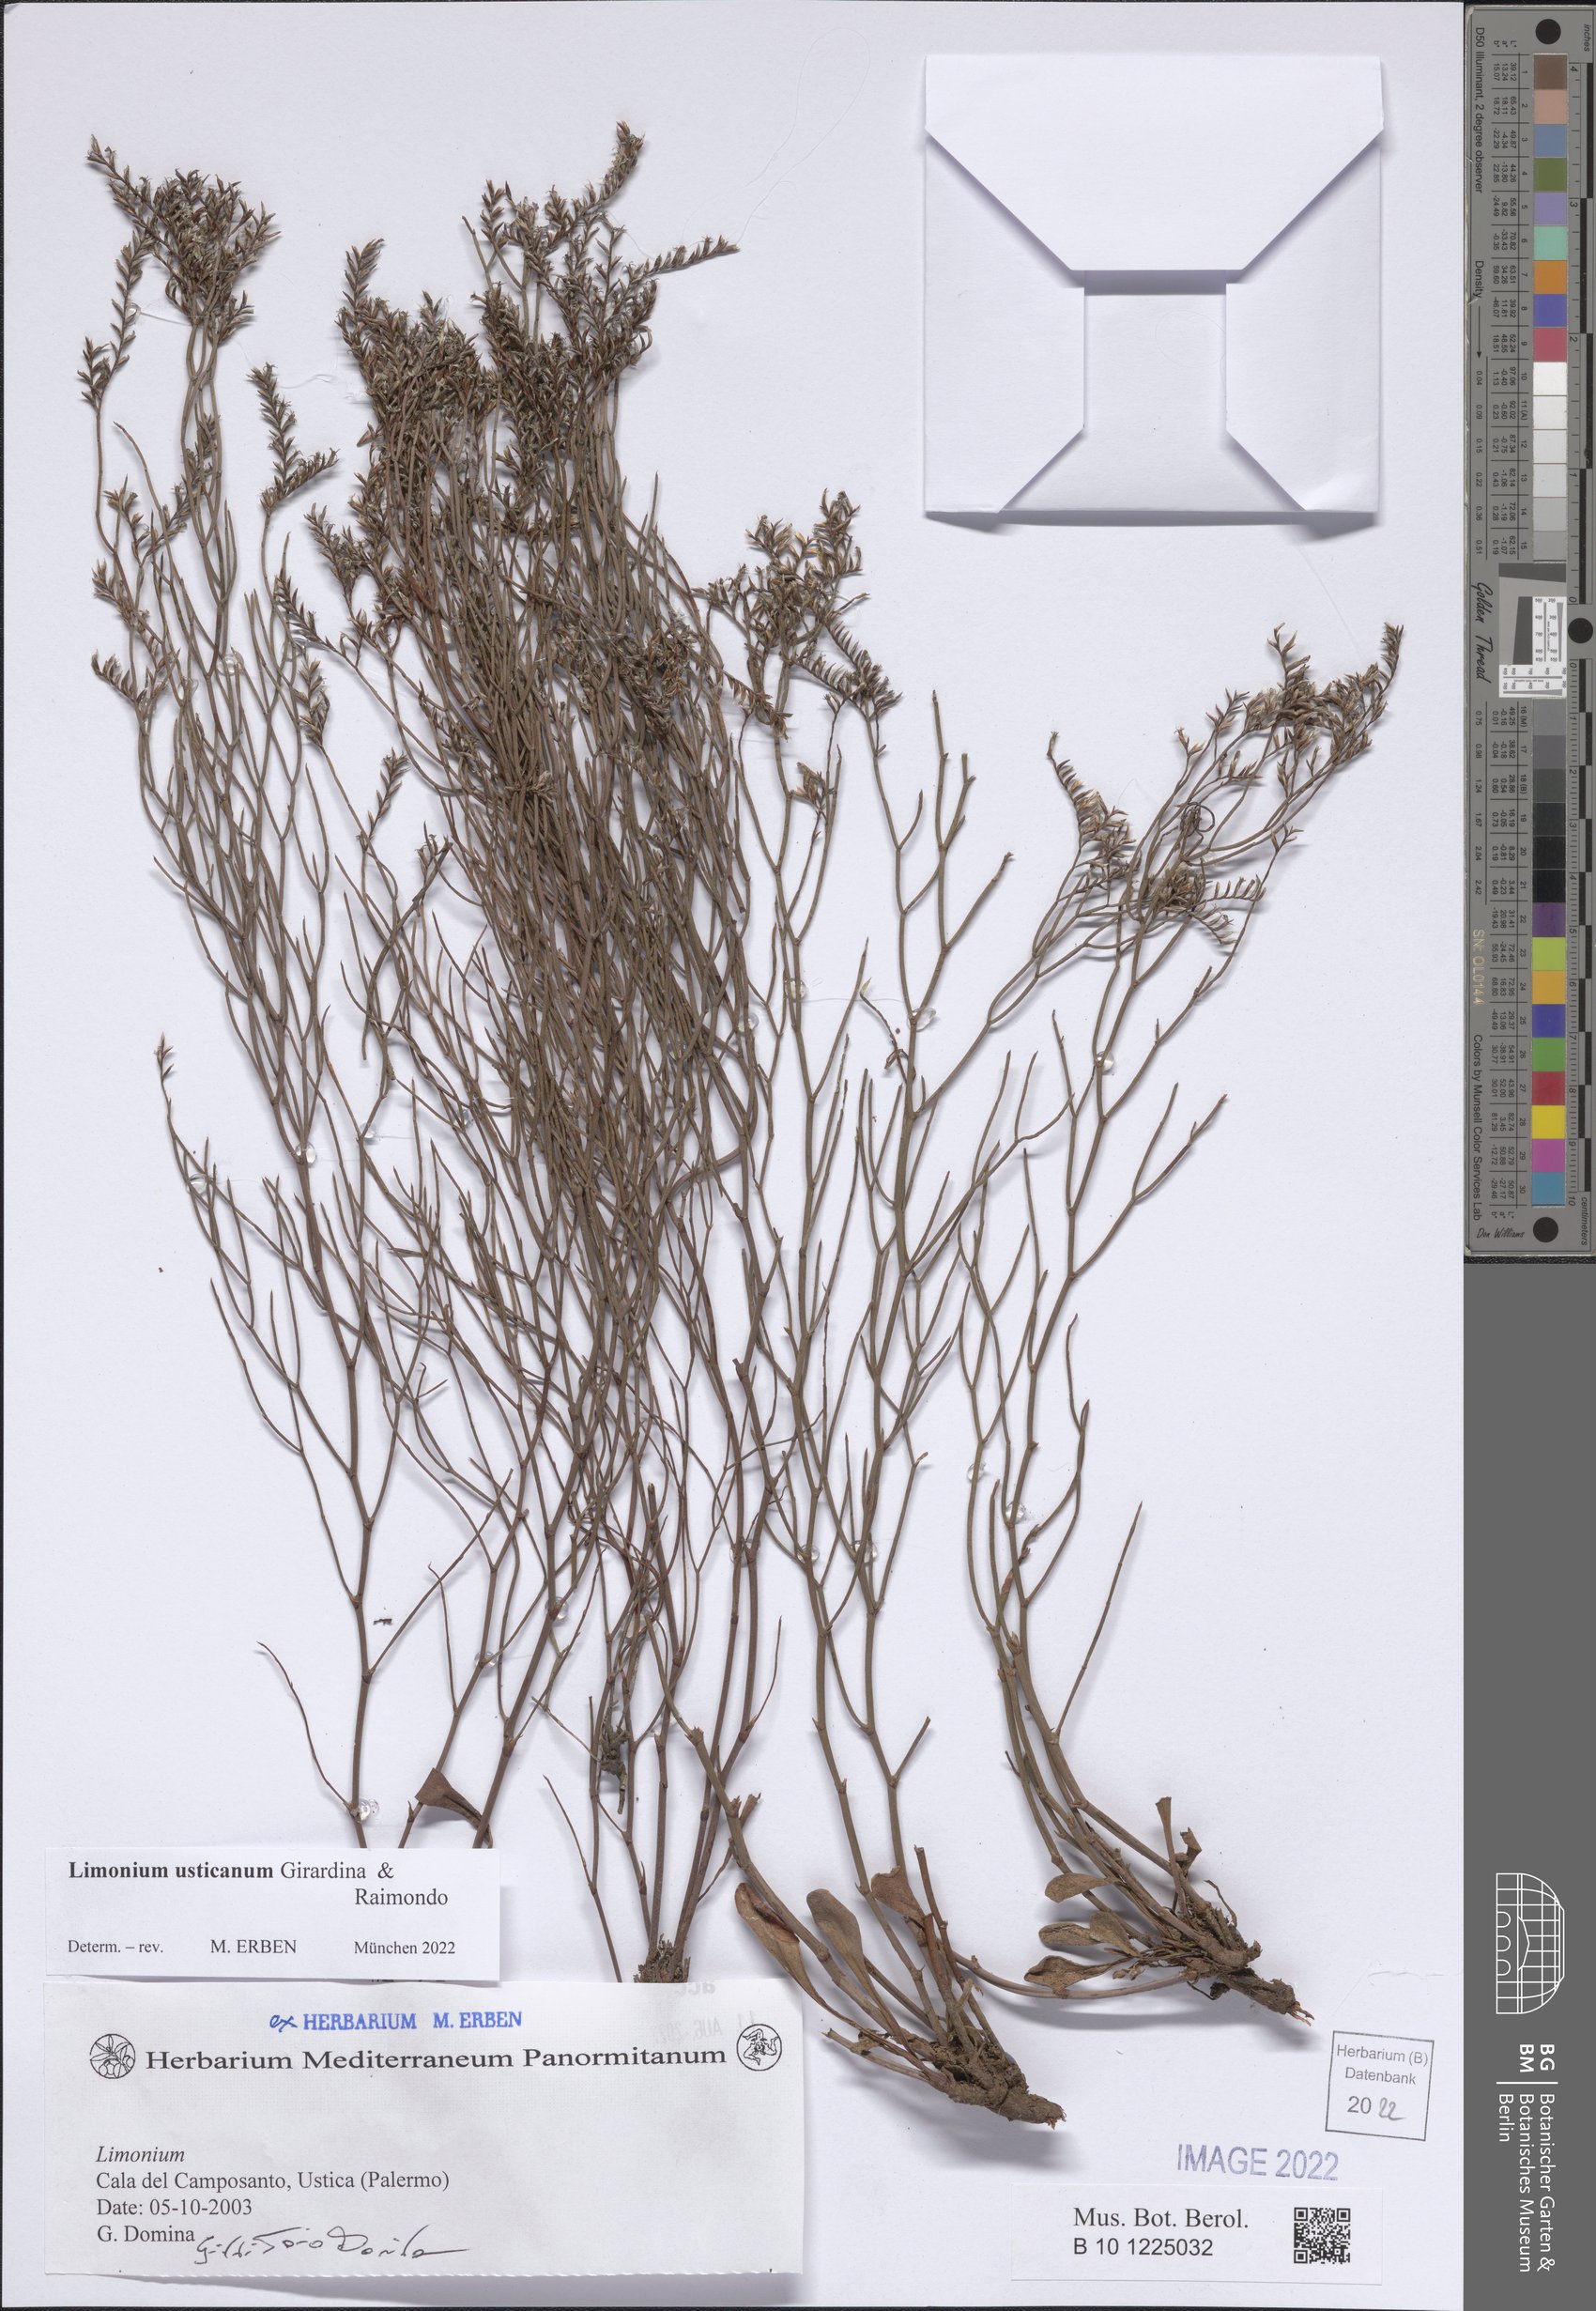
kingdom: Plantae
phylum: Tracheophyta
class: Magnoliopsida
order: Caryophyllales
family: Plumbaginaceae
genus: Limonium
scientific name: Limonium usticanum
